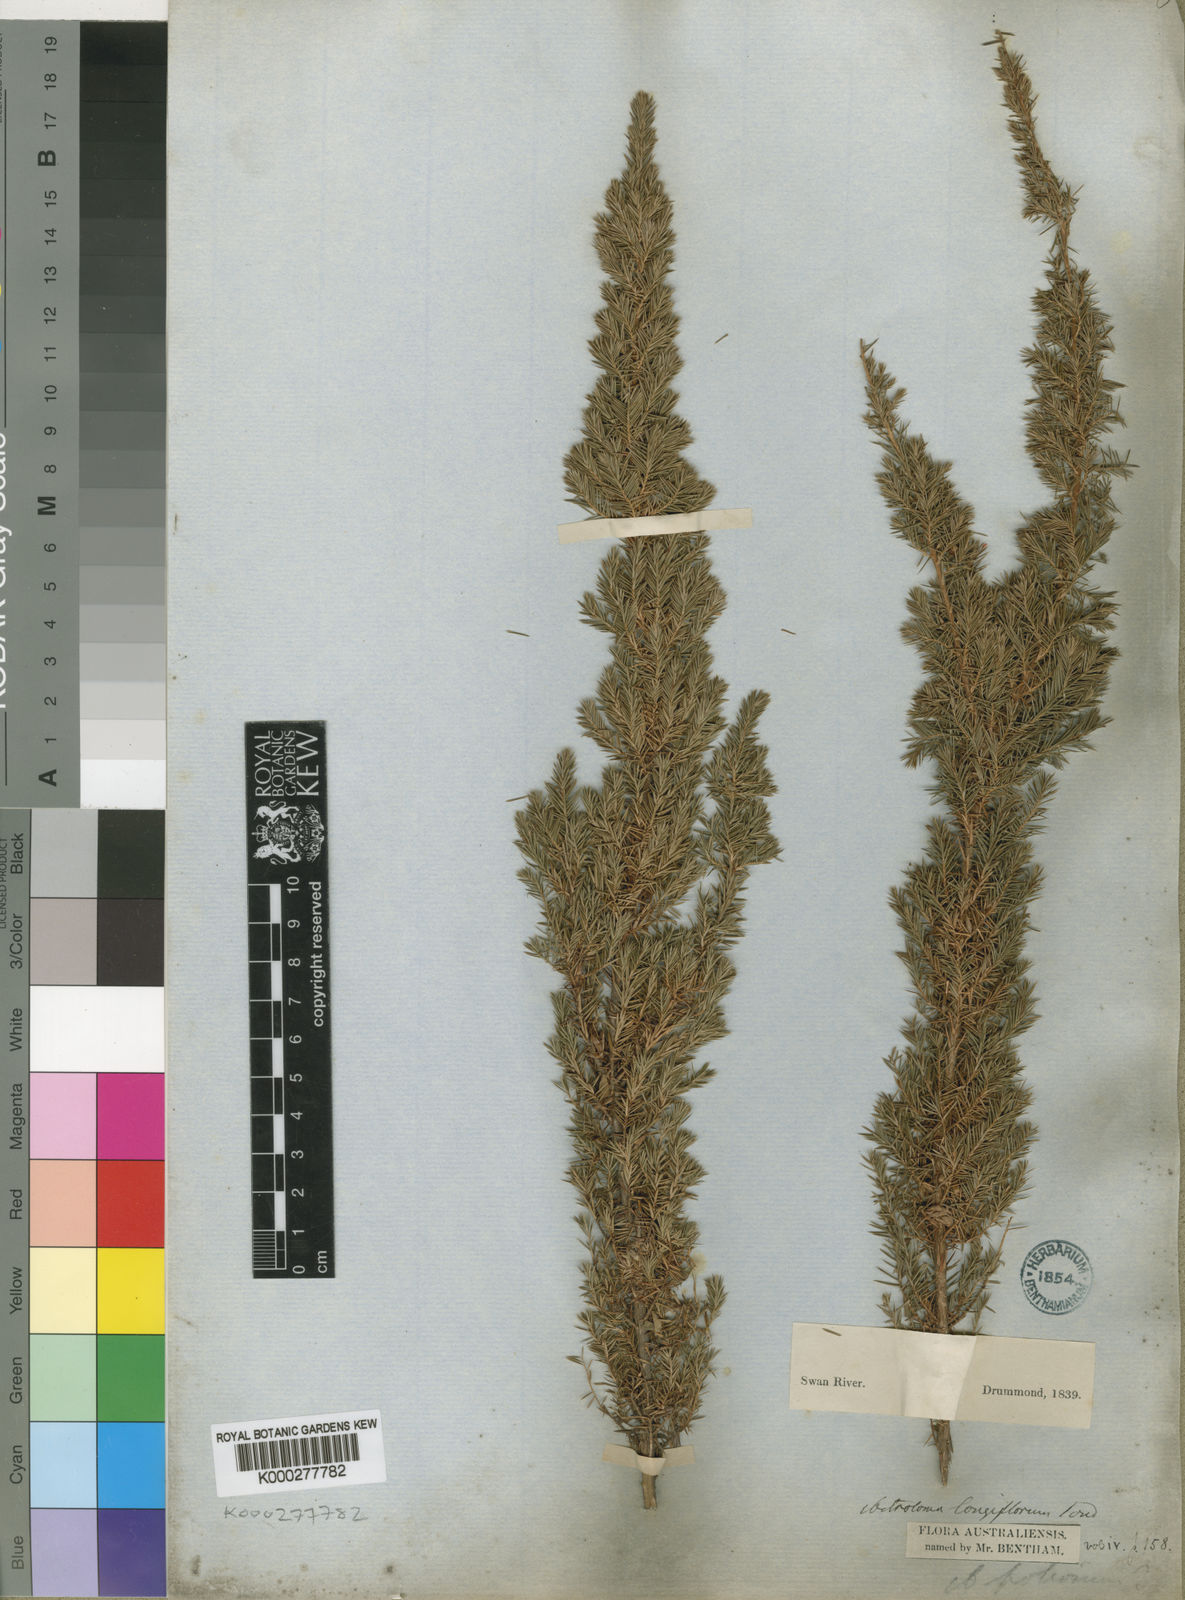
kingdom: Plantae
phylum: Tracheophyta
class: Magnoliopsida
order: Ericales
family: Ericaceae
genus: Styphelia
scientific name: Styphelia foliosa
